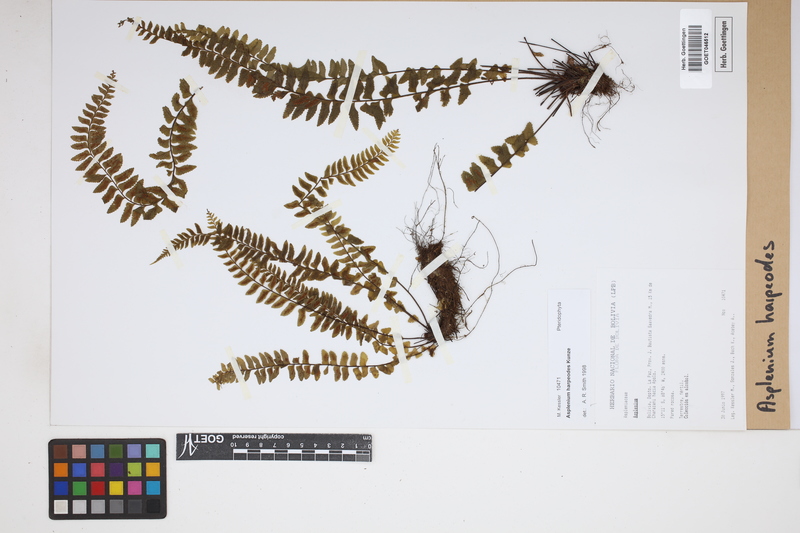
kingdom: Plantae
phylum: Tracheophyta
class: Polypodiopsida
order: Polypodiales
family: Aspleniaceae
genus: Asplenium
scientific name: Asplenium harpeodes
